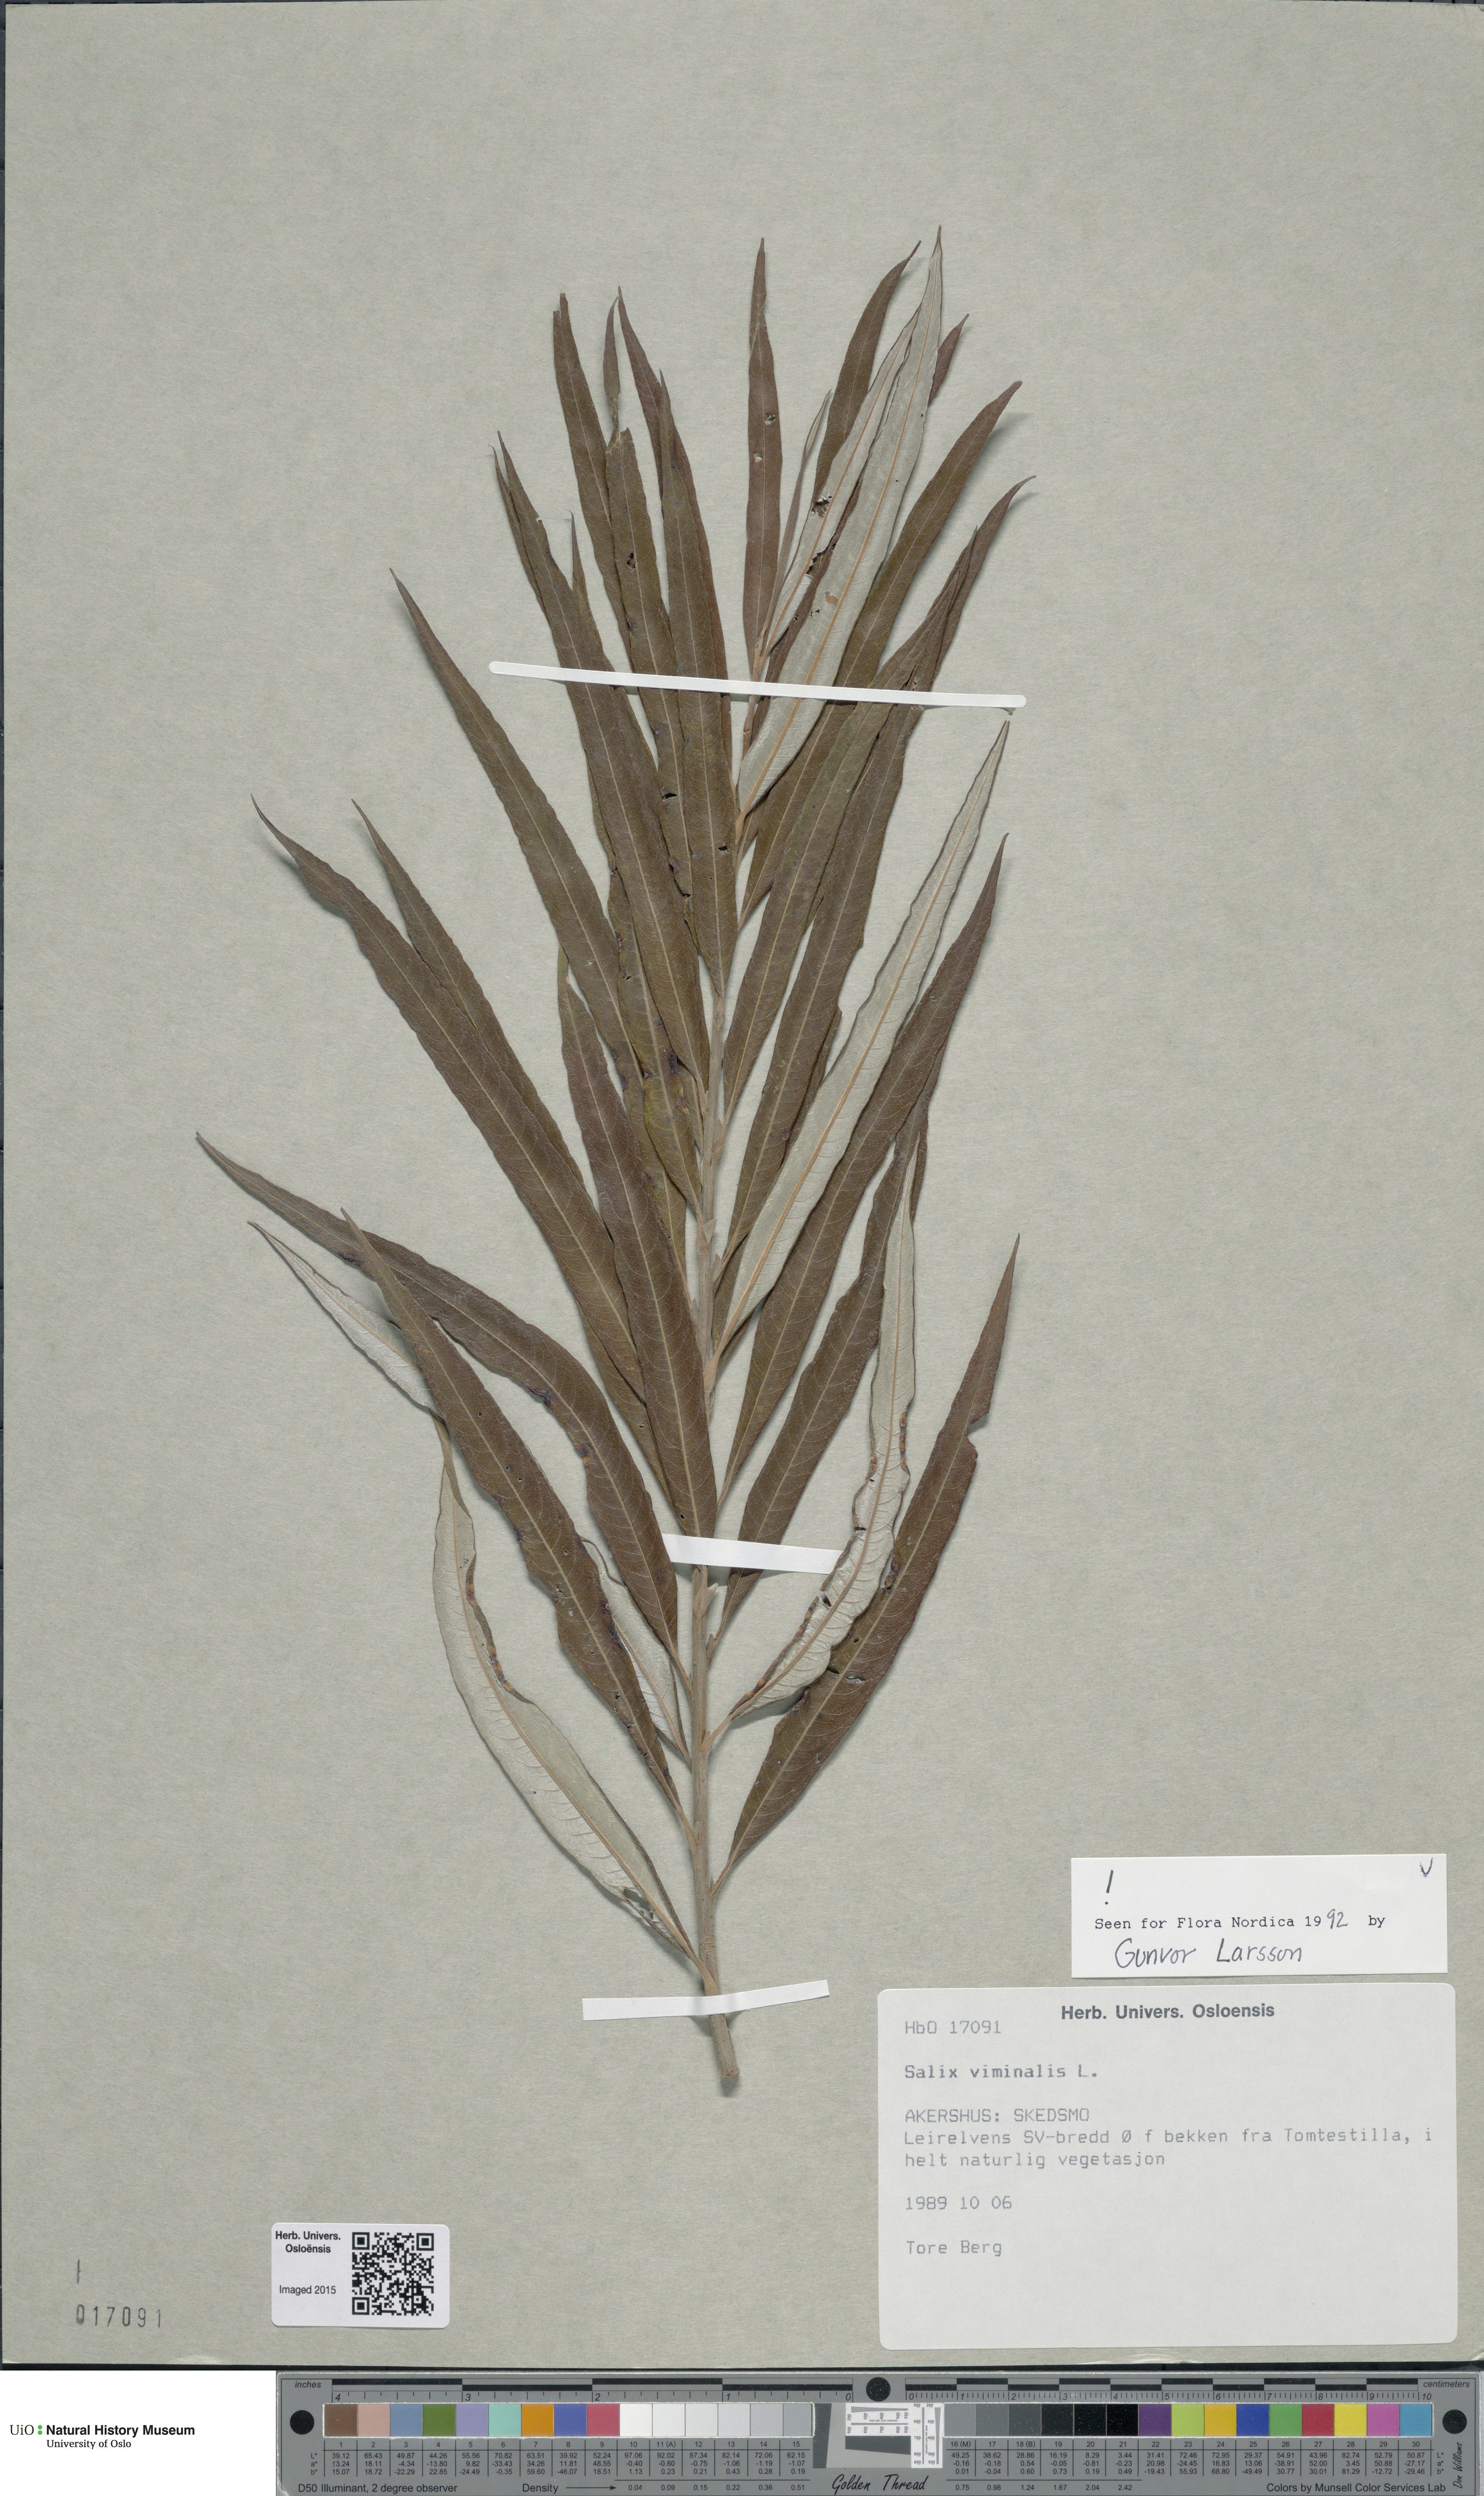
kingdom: Plantae
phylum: Tracheophyta
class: Magnoliopsida
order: Malpighiales
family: Salicaceae
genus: Salix
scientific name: Salix viminalis
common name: Osier
